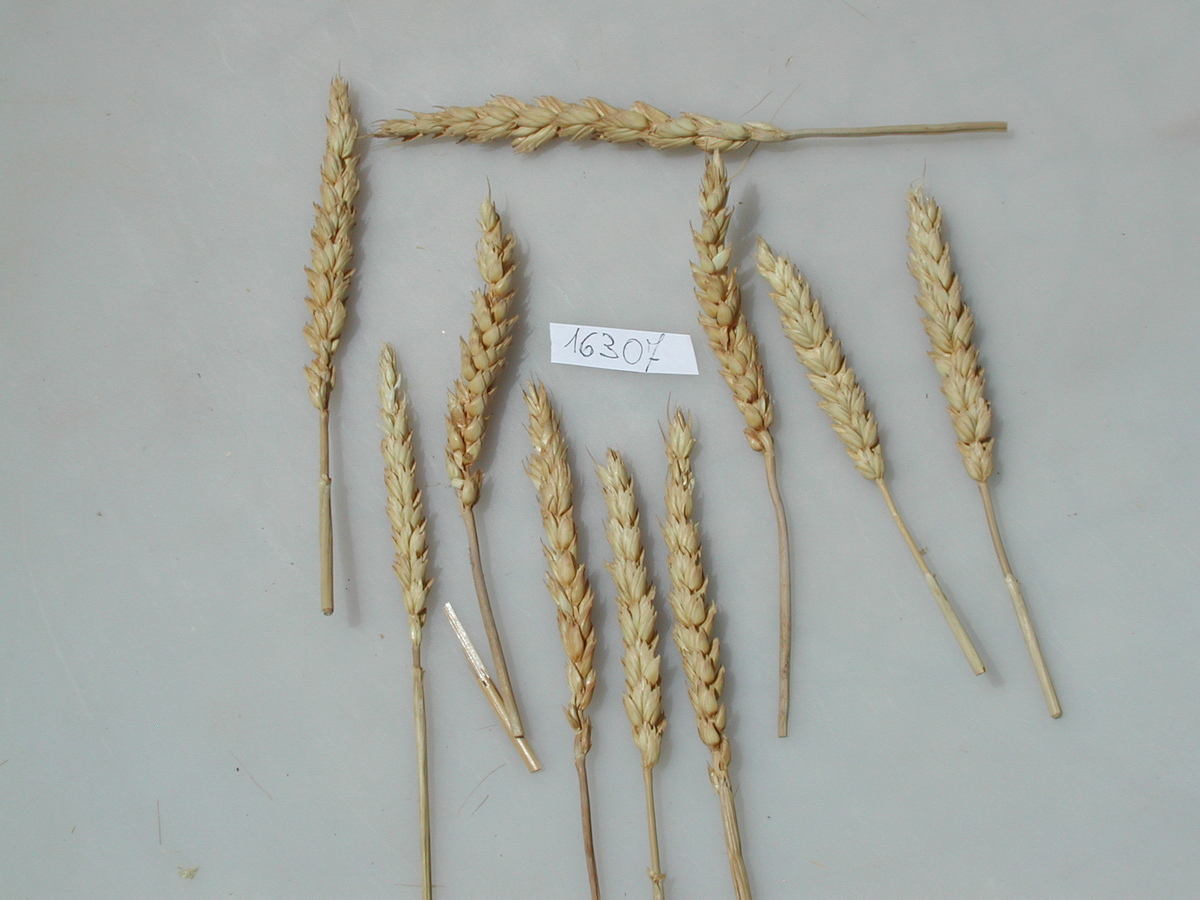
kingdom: Plantae
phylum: Tracheophyta
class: Liliopsida
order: Poales
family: Poaceae
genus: Triticum
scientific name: Triticum
